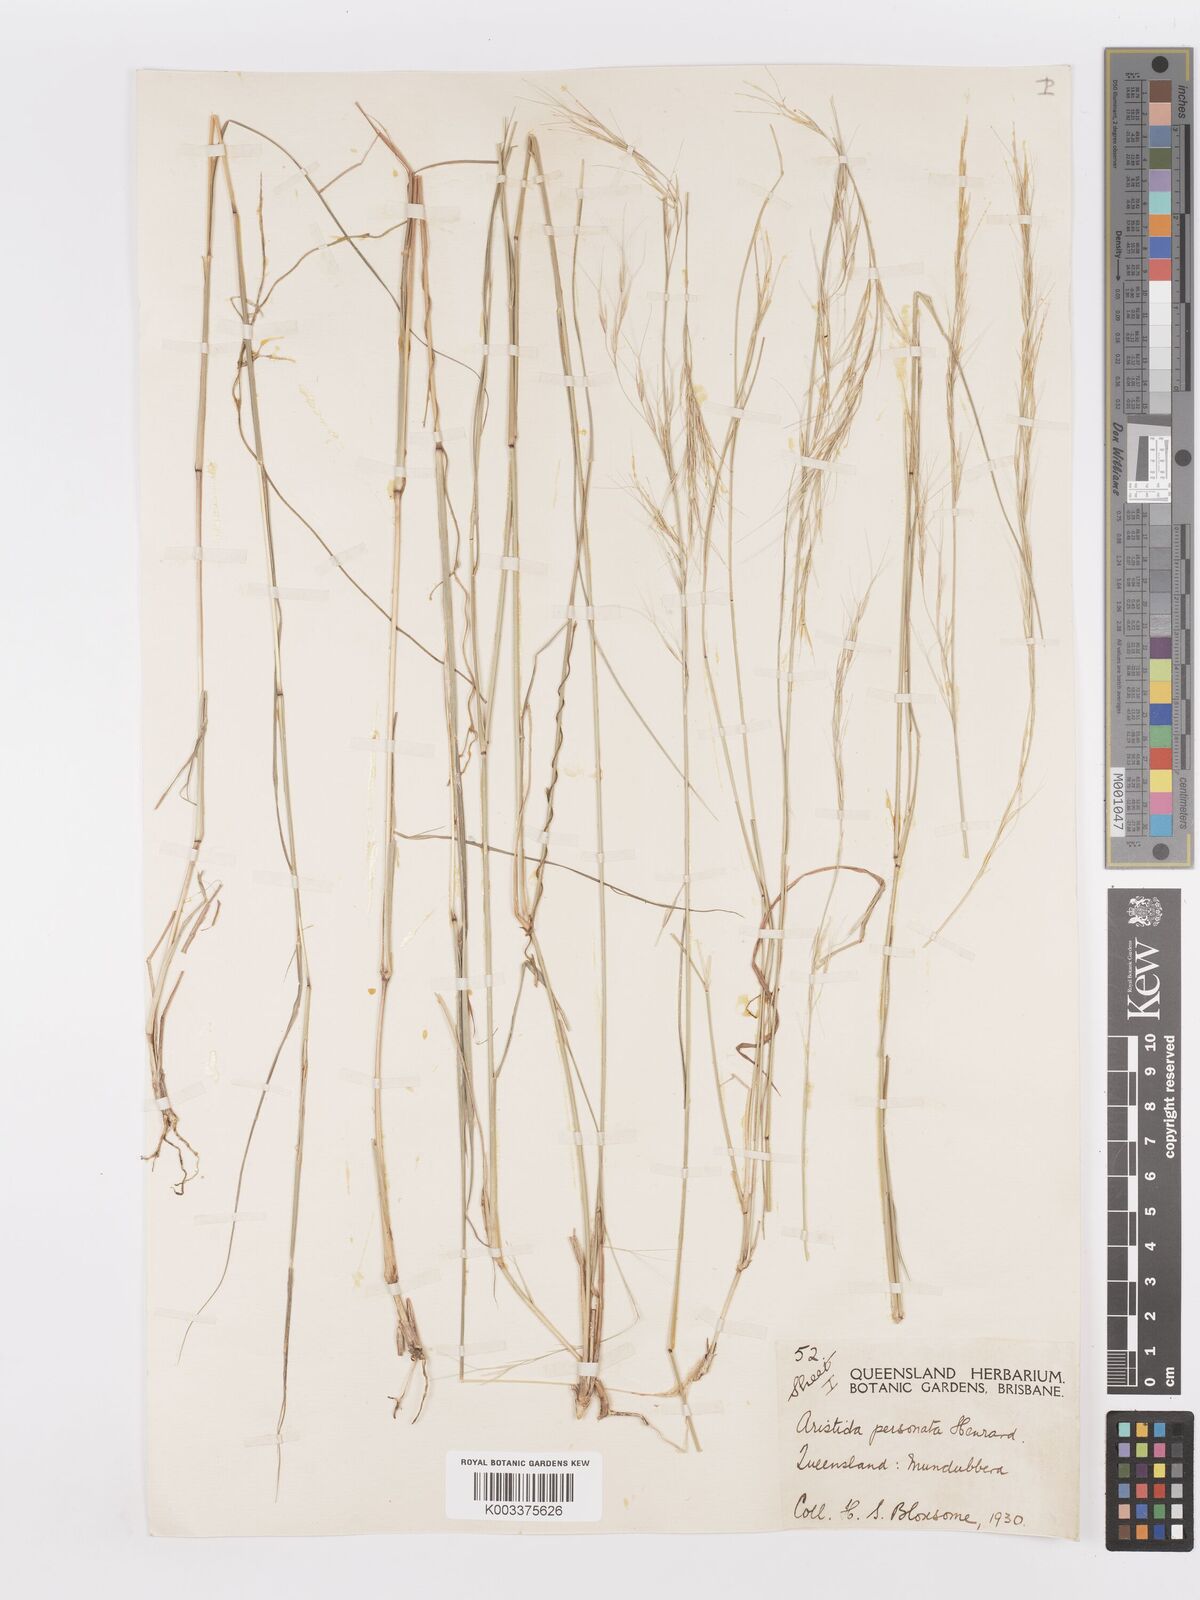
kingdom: Plantae
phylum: Tracheophyta
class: Liliopsida
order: Poales
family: Poaceae
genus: Aristida
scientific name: Aristida personata
